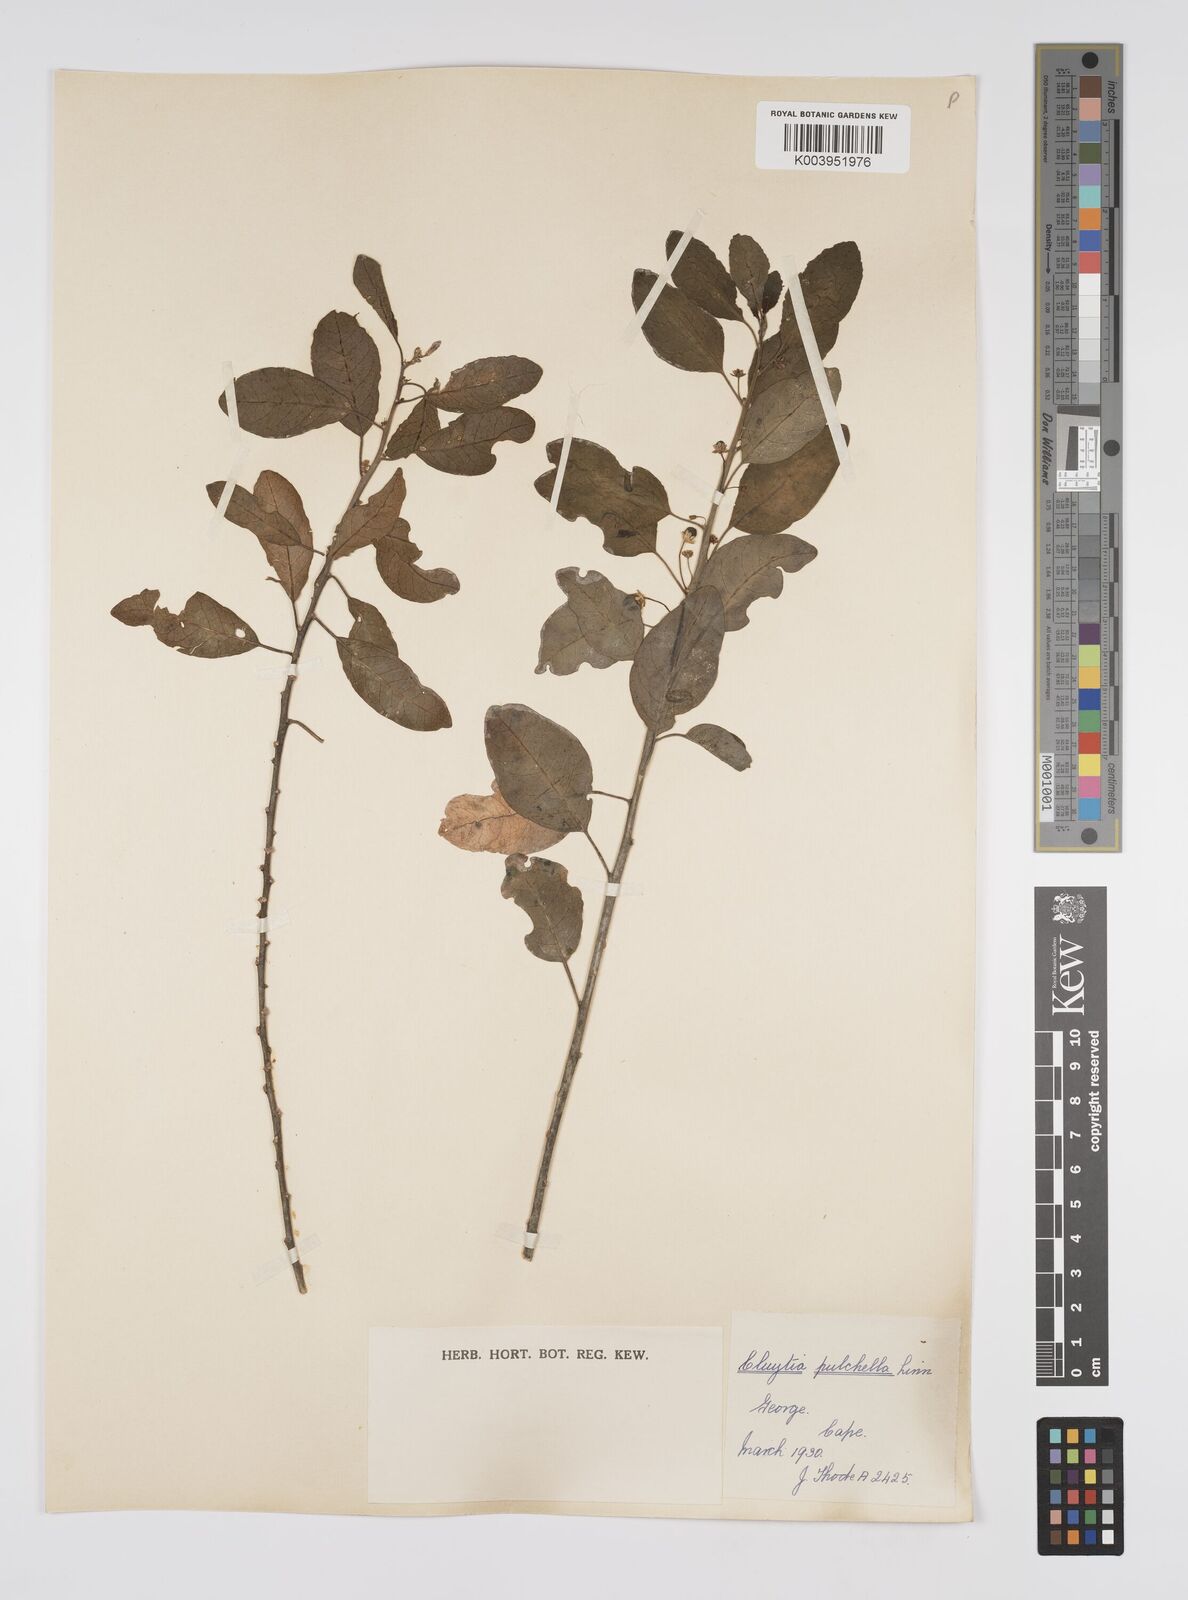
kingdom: Plantae
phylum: Tracheophyta
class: Magnoliopsida
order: Malpighiales
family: Peraceae
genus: Clutia
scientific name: Clutia pulchella
